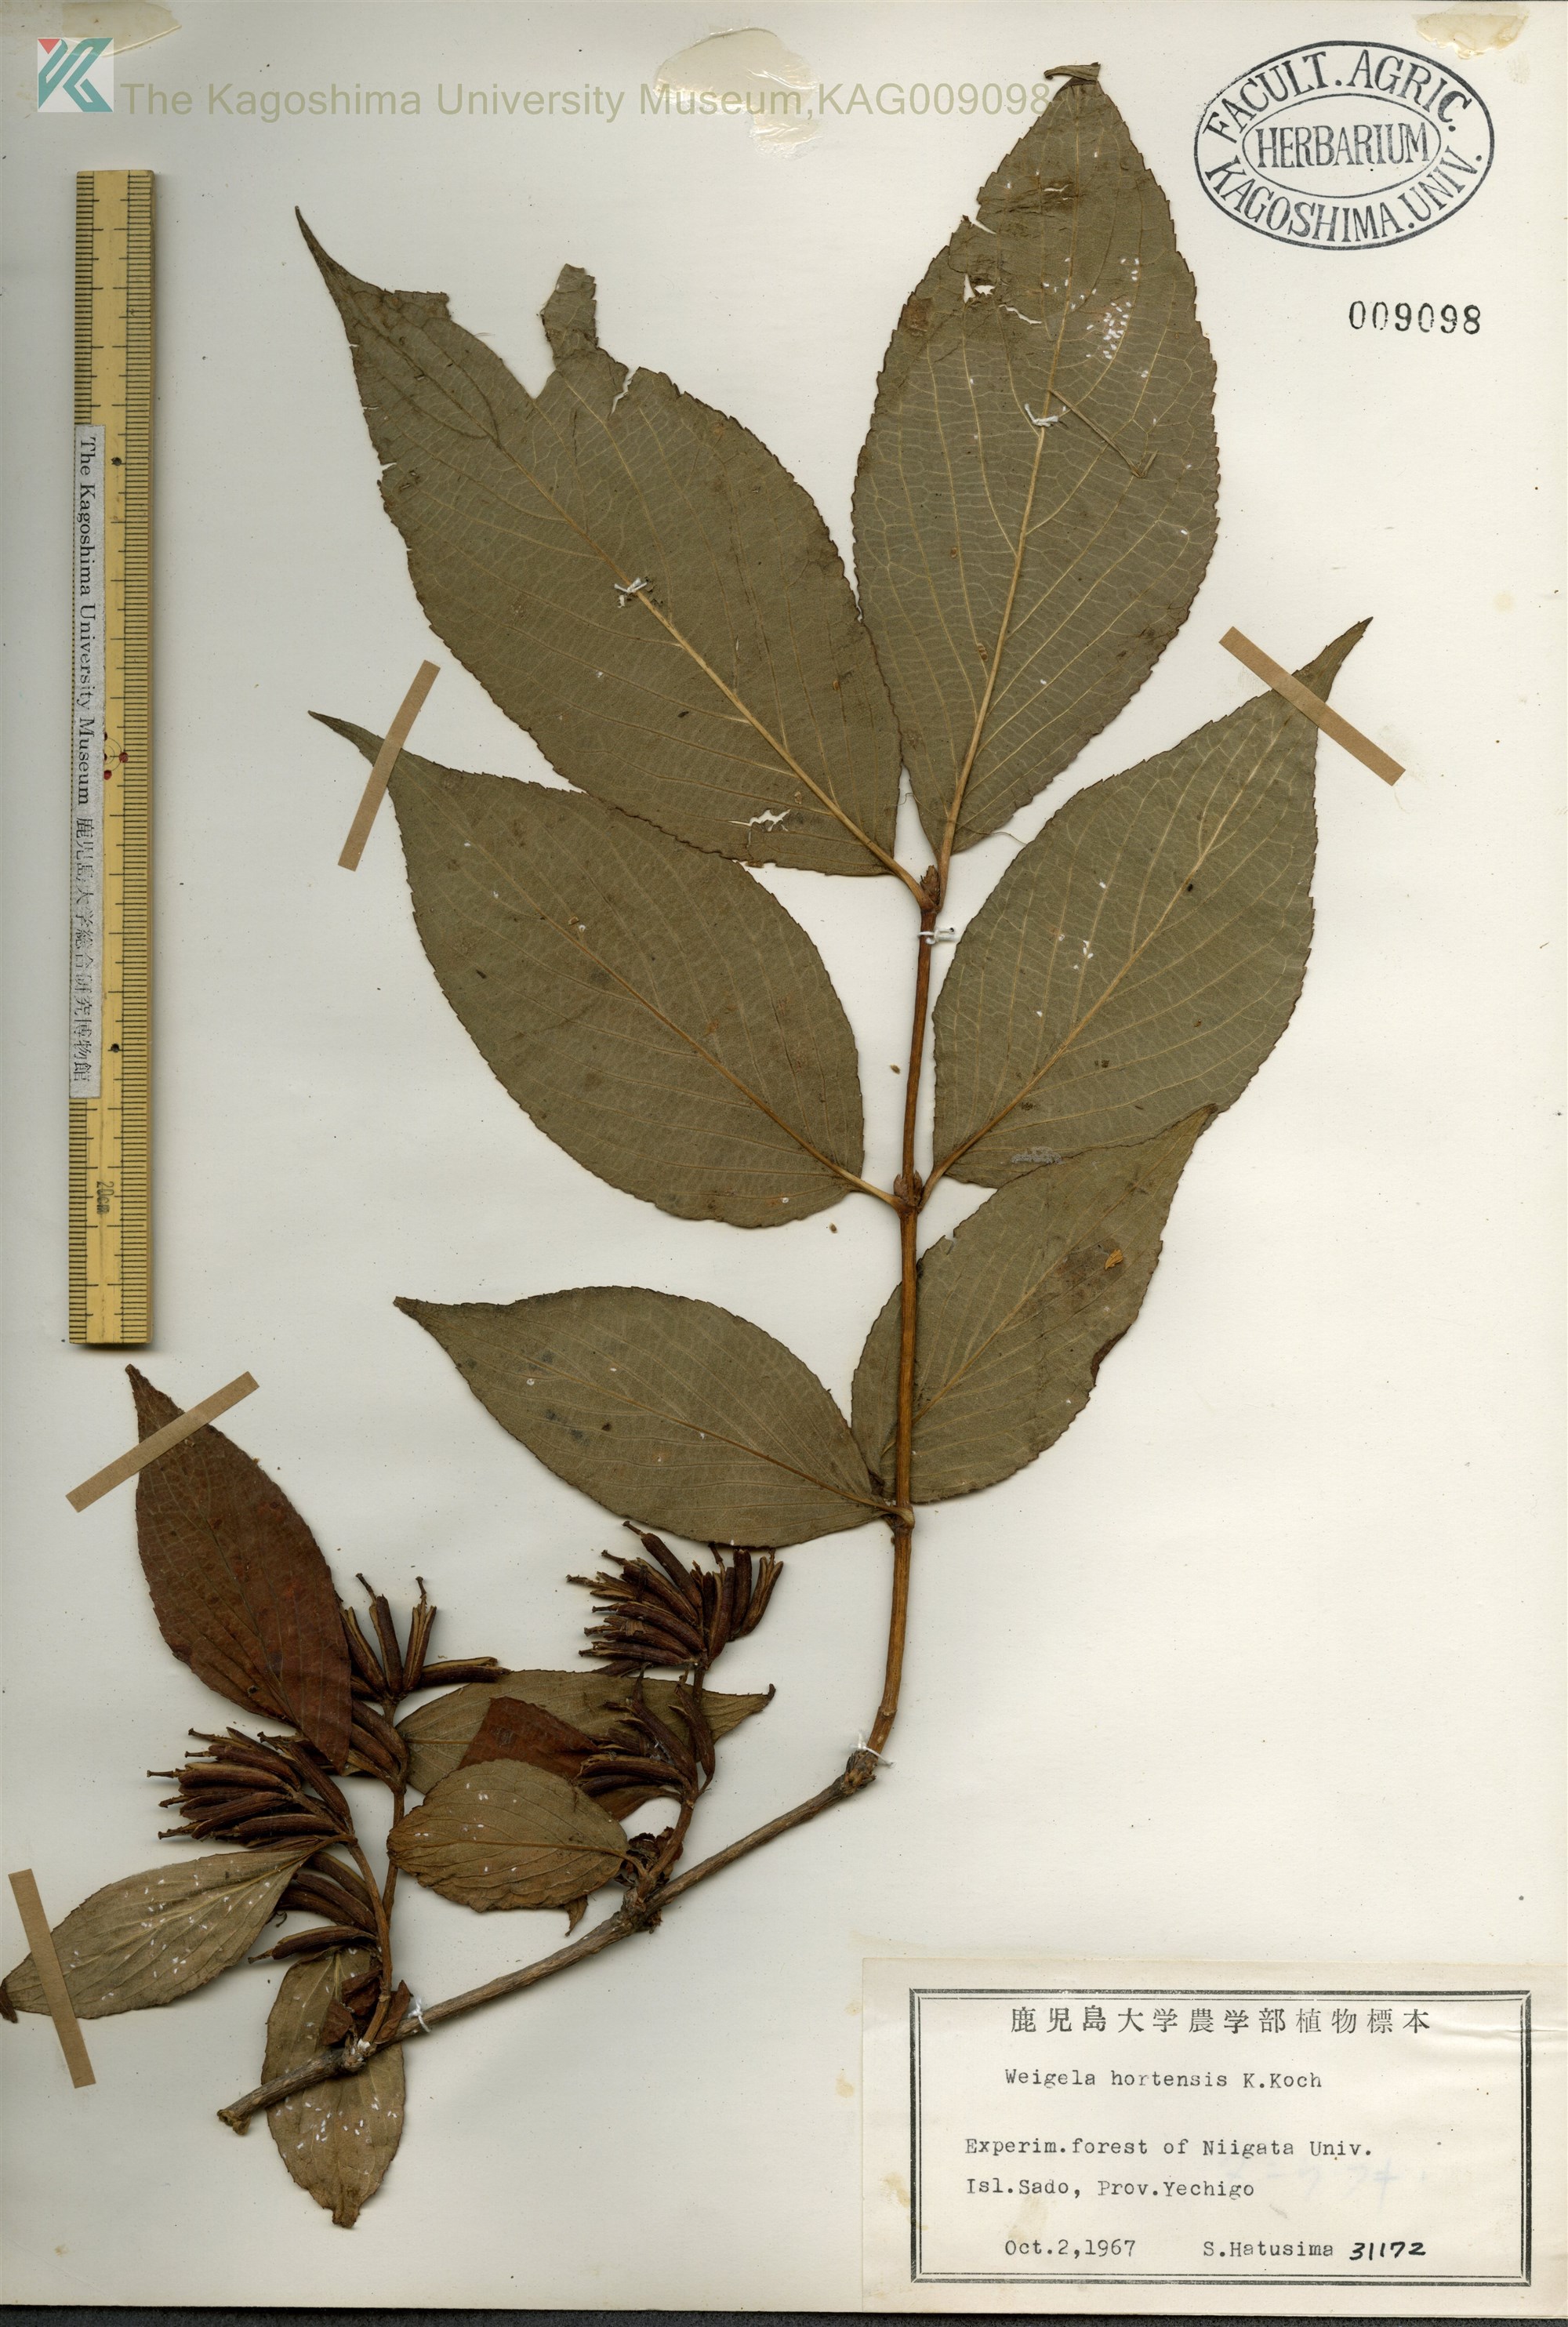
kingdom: Plantae
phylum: Tracheophyta
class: Magnoliopsida
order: Dipsacales
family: Caprifoliaceae
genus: Weigela
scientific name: Weigela hortensis
